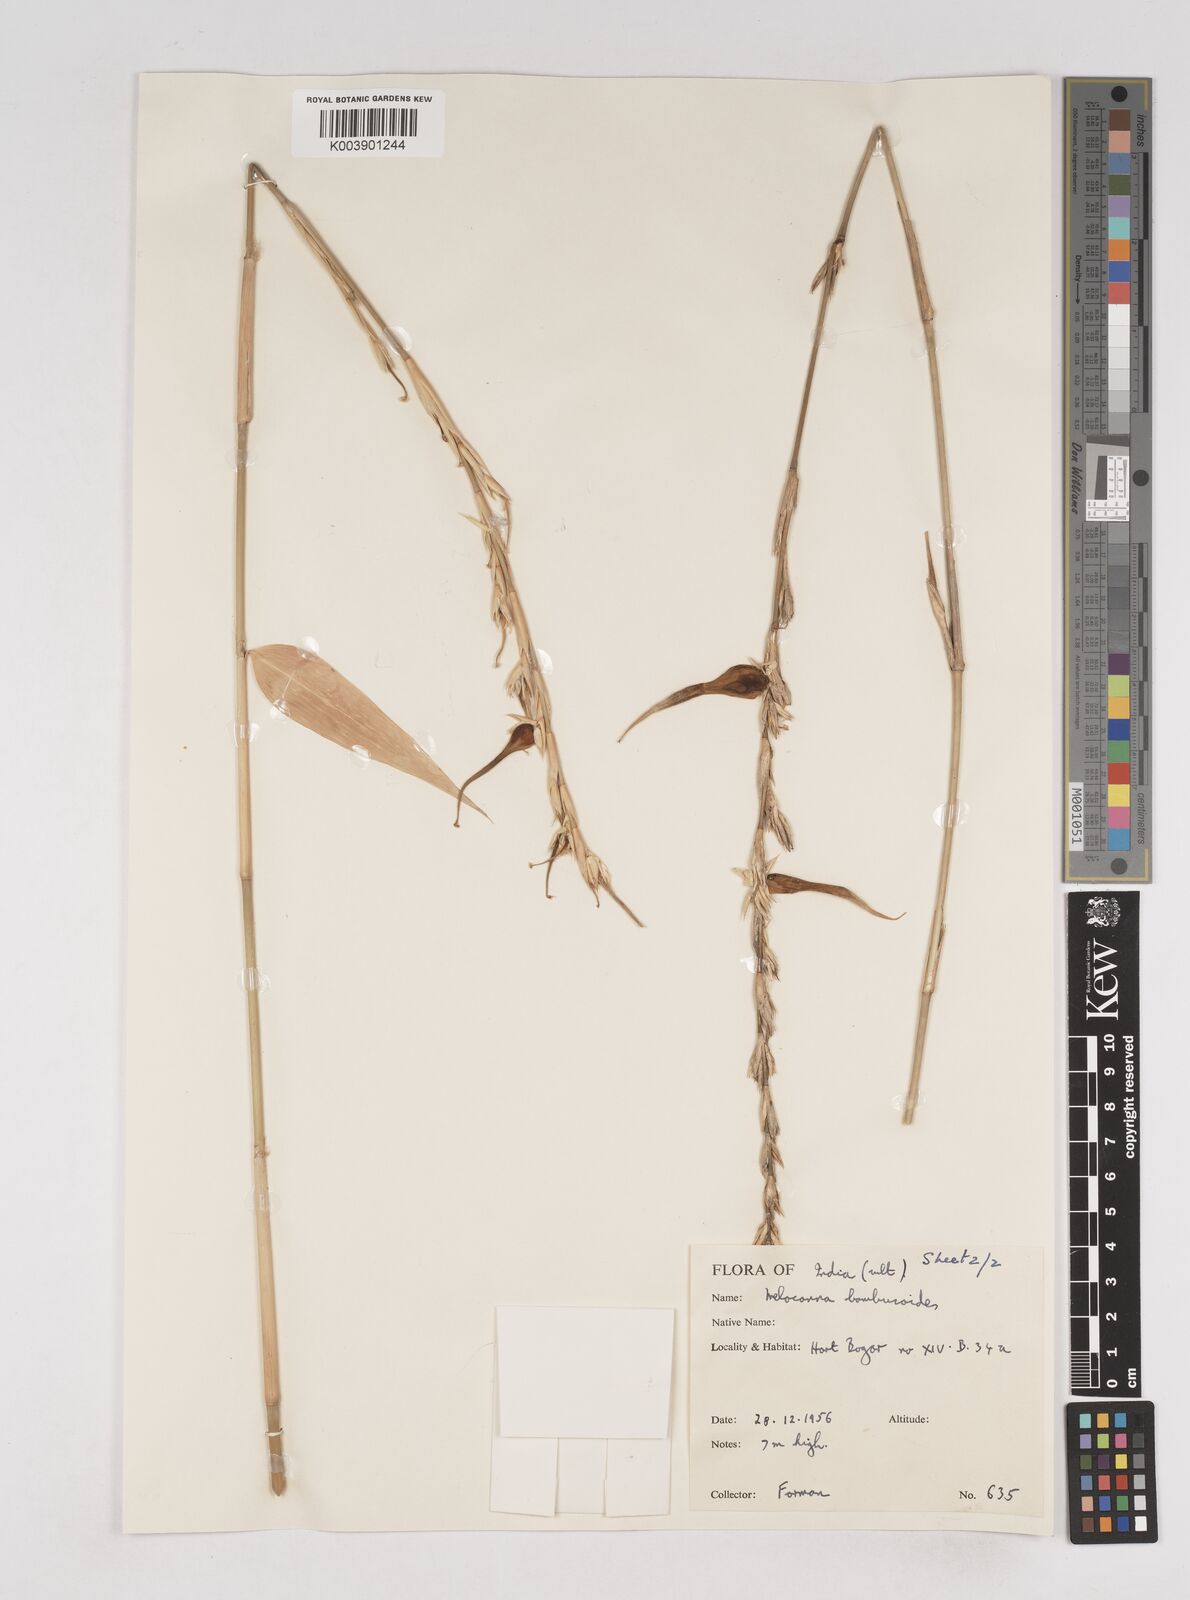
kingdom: Plantae
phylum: Tracheophyta
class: Liliopsida
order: Poales
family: Poaceae
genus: Melocanna
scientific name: Melocanna baccifera
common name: Berry bamboo
